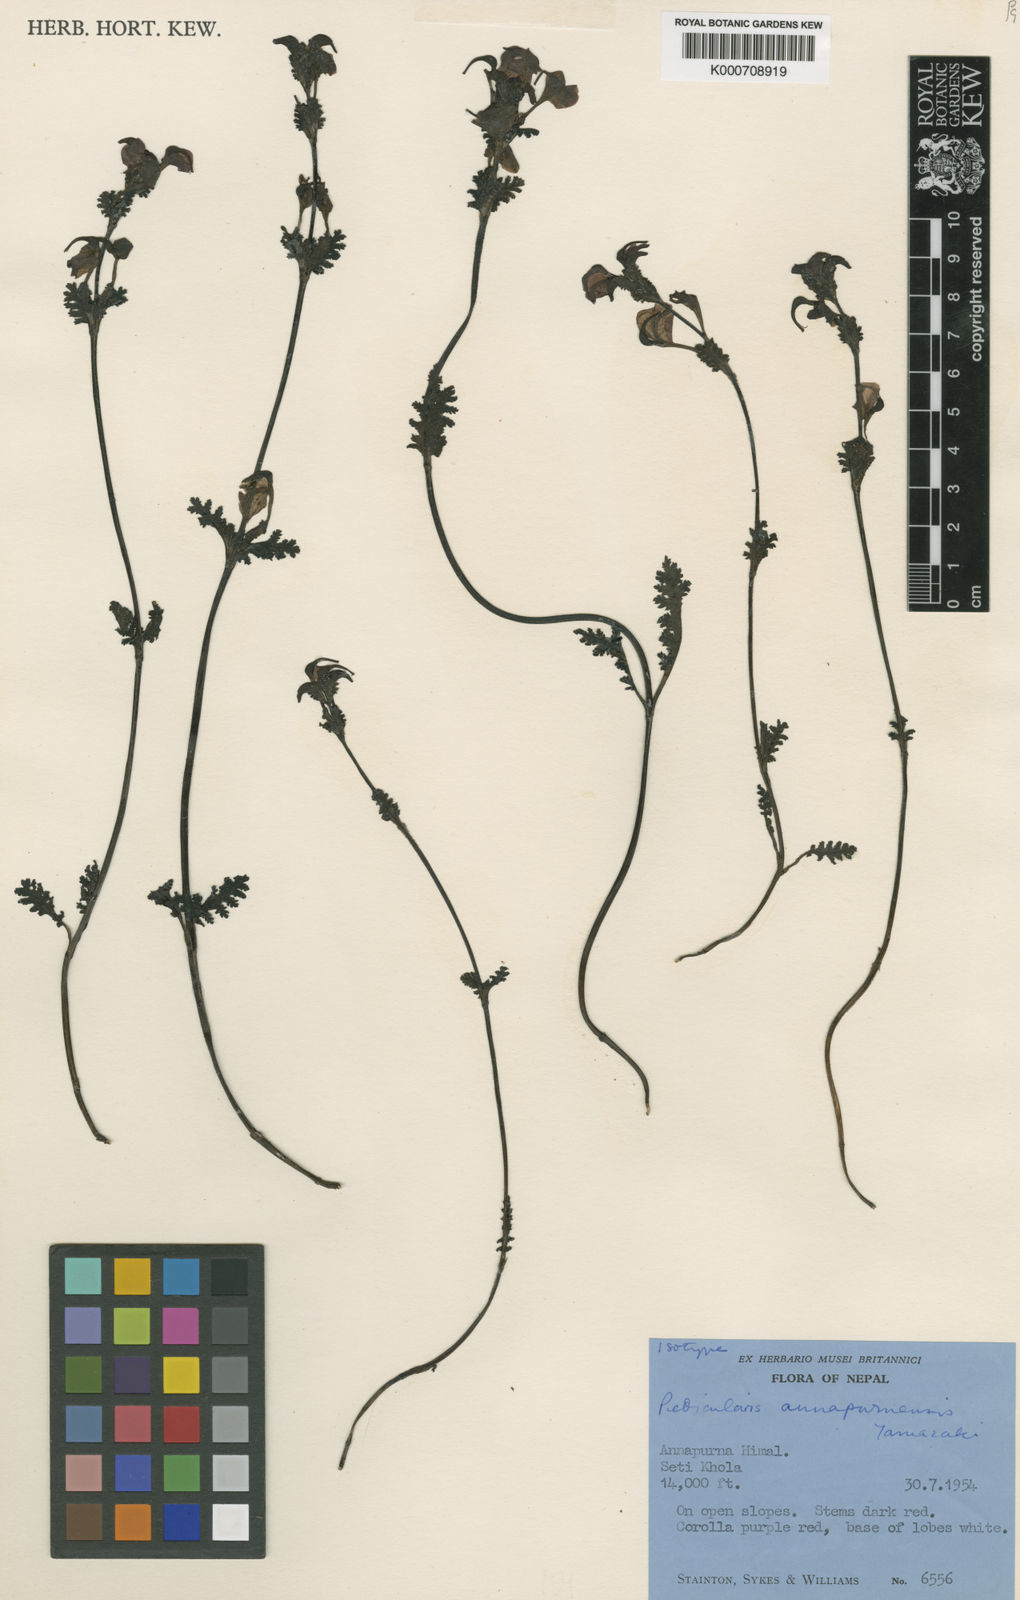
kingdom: Plantae
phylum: Tracheophyta
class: Magnoliopsida
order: Lamiales
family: Orobanchaceae
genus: Pedicularis
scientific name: Pedicularis annapurnensis
